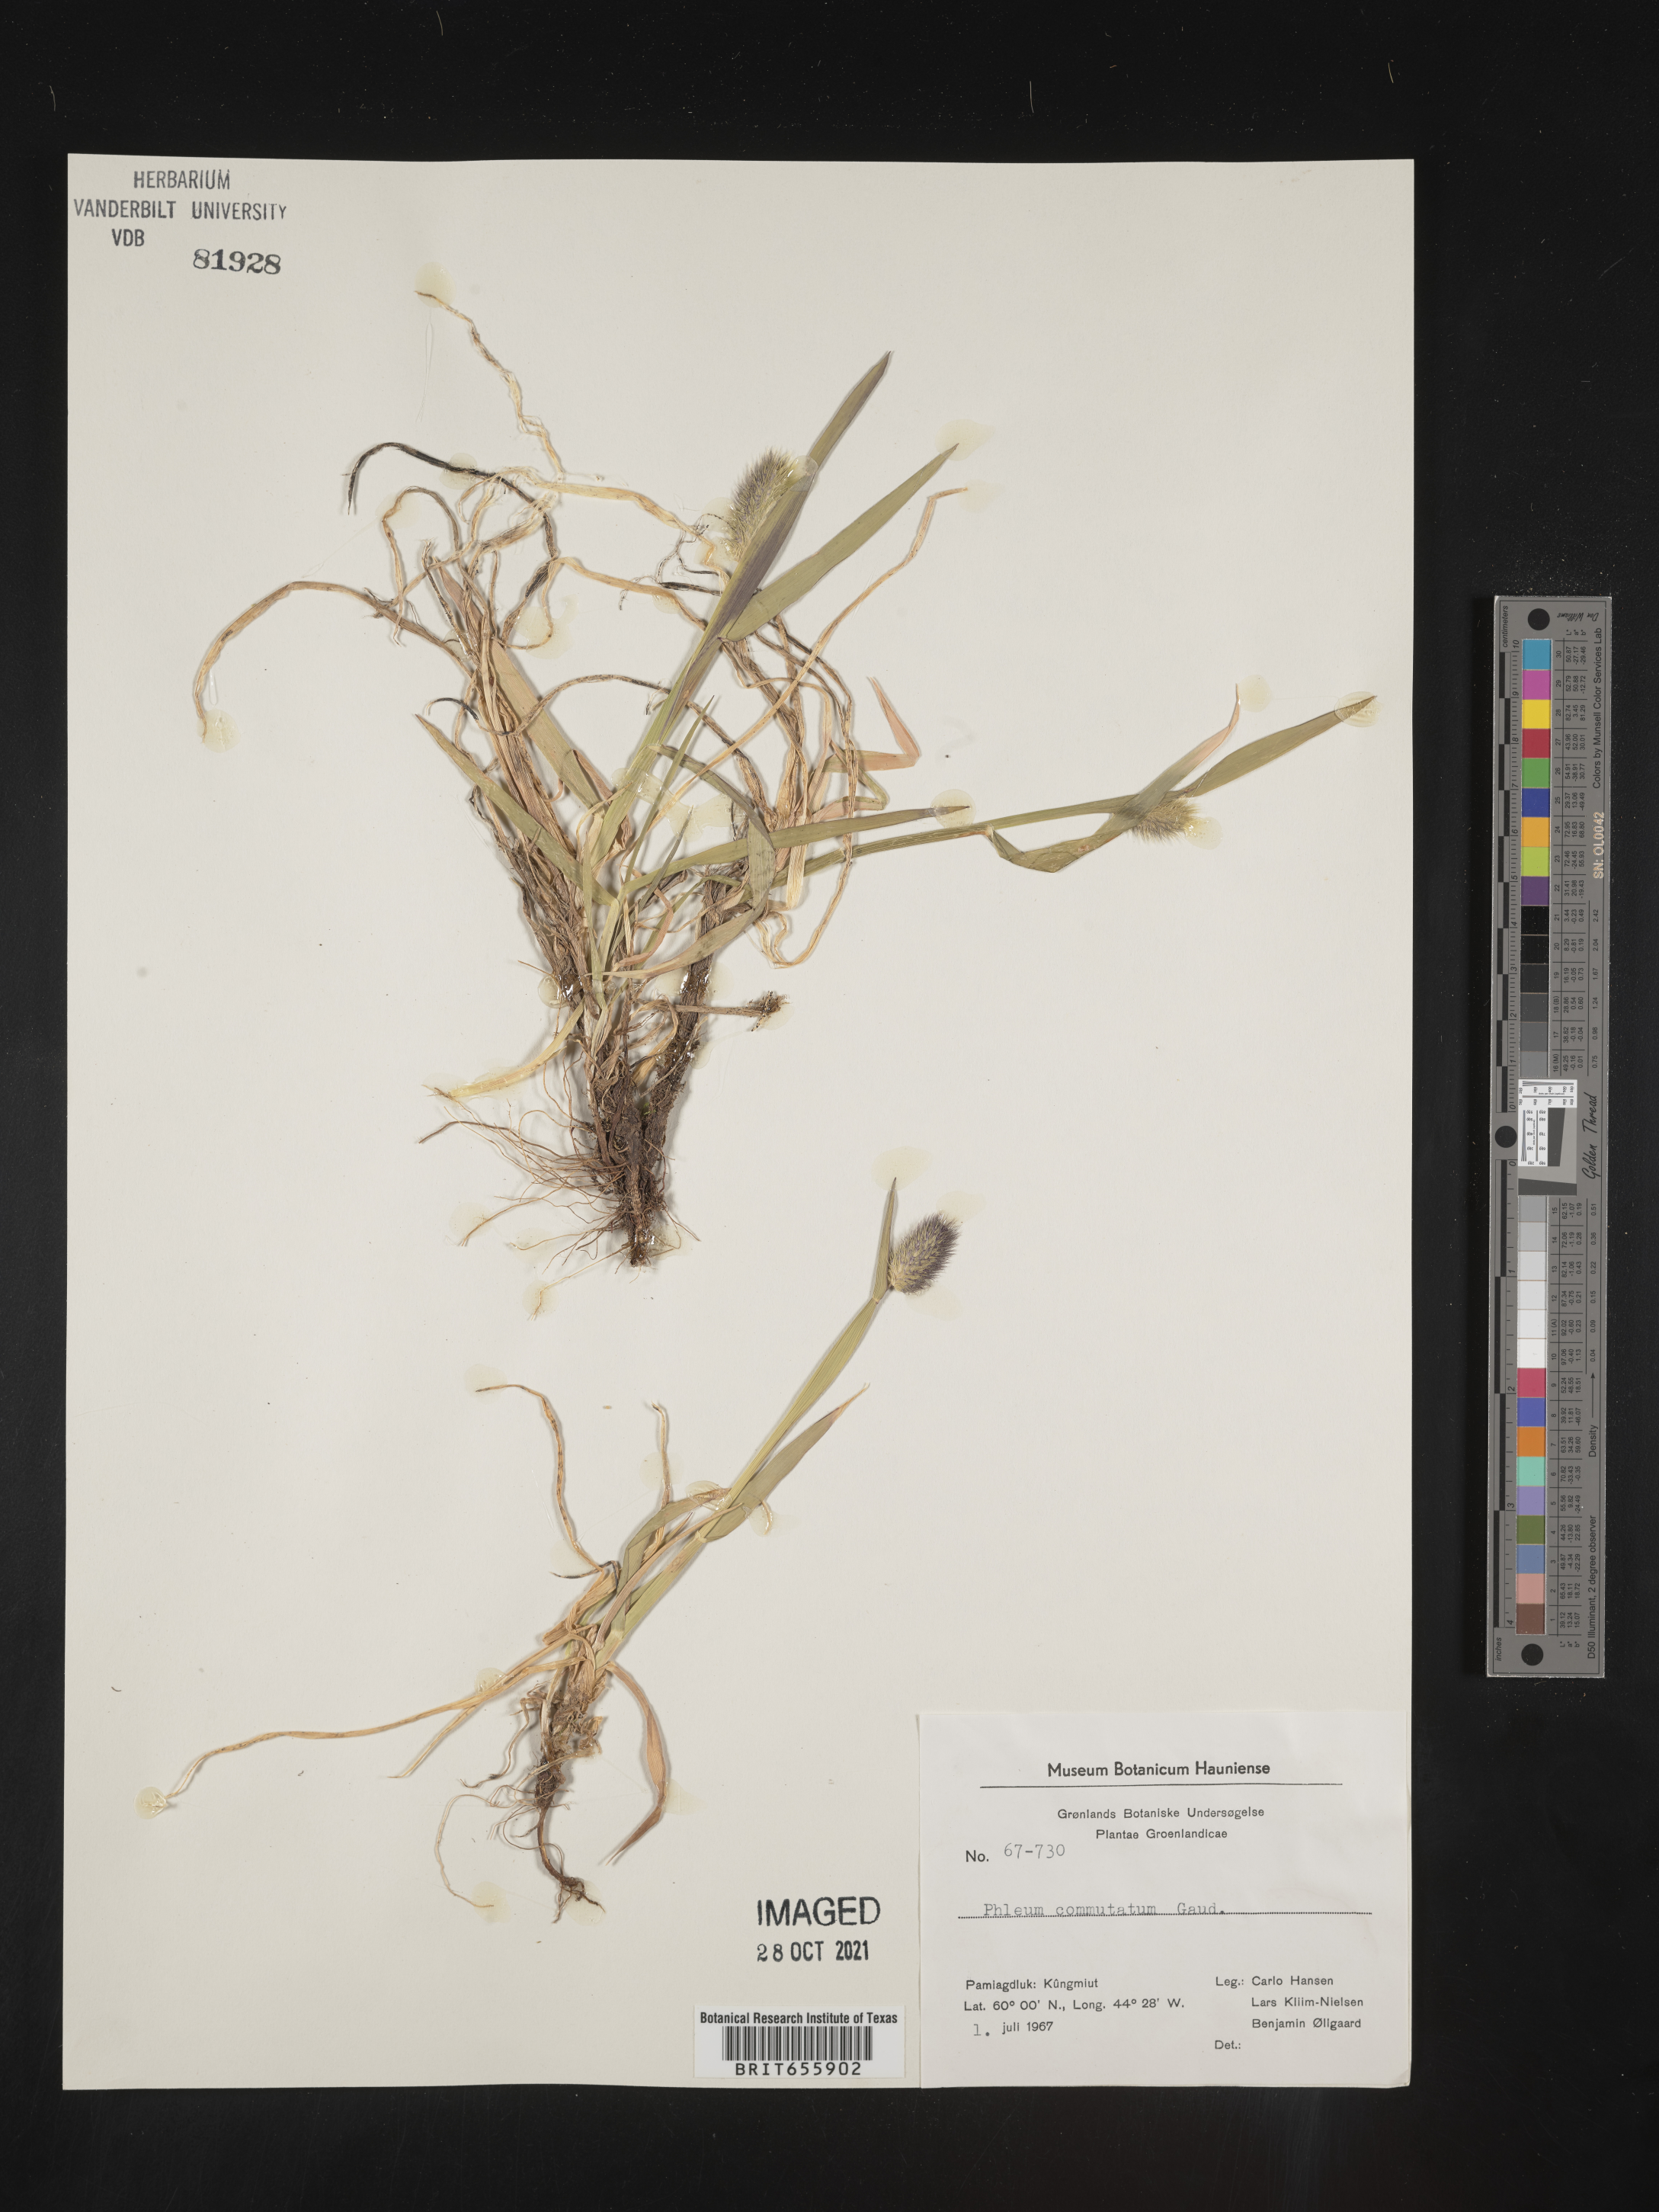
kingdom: Plantae
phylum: Tracheophyta
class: Liliopsida
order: Poales
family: Poaceae
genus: Phleum
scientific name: Phleum
